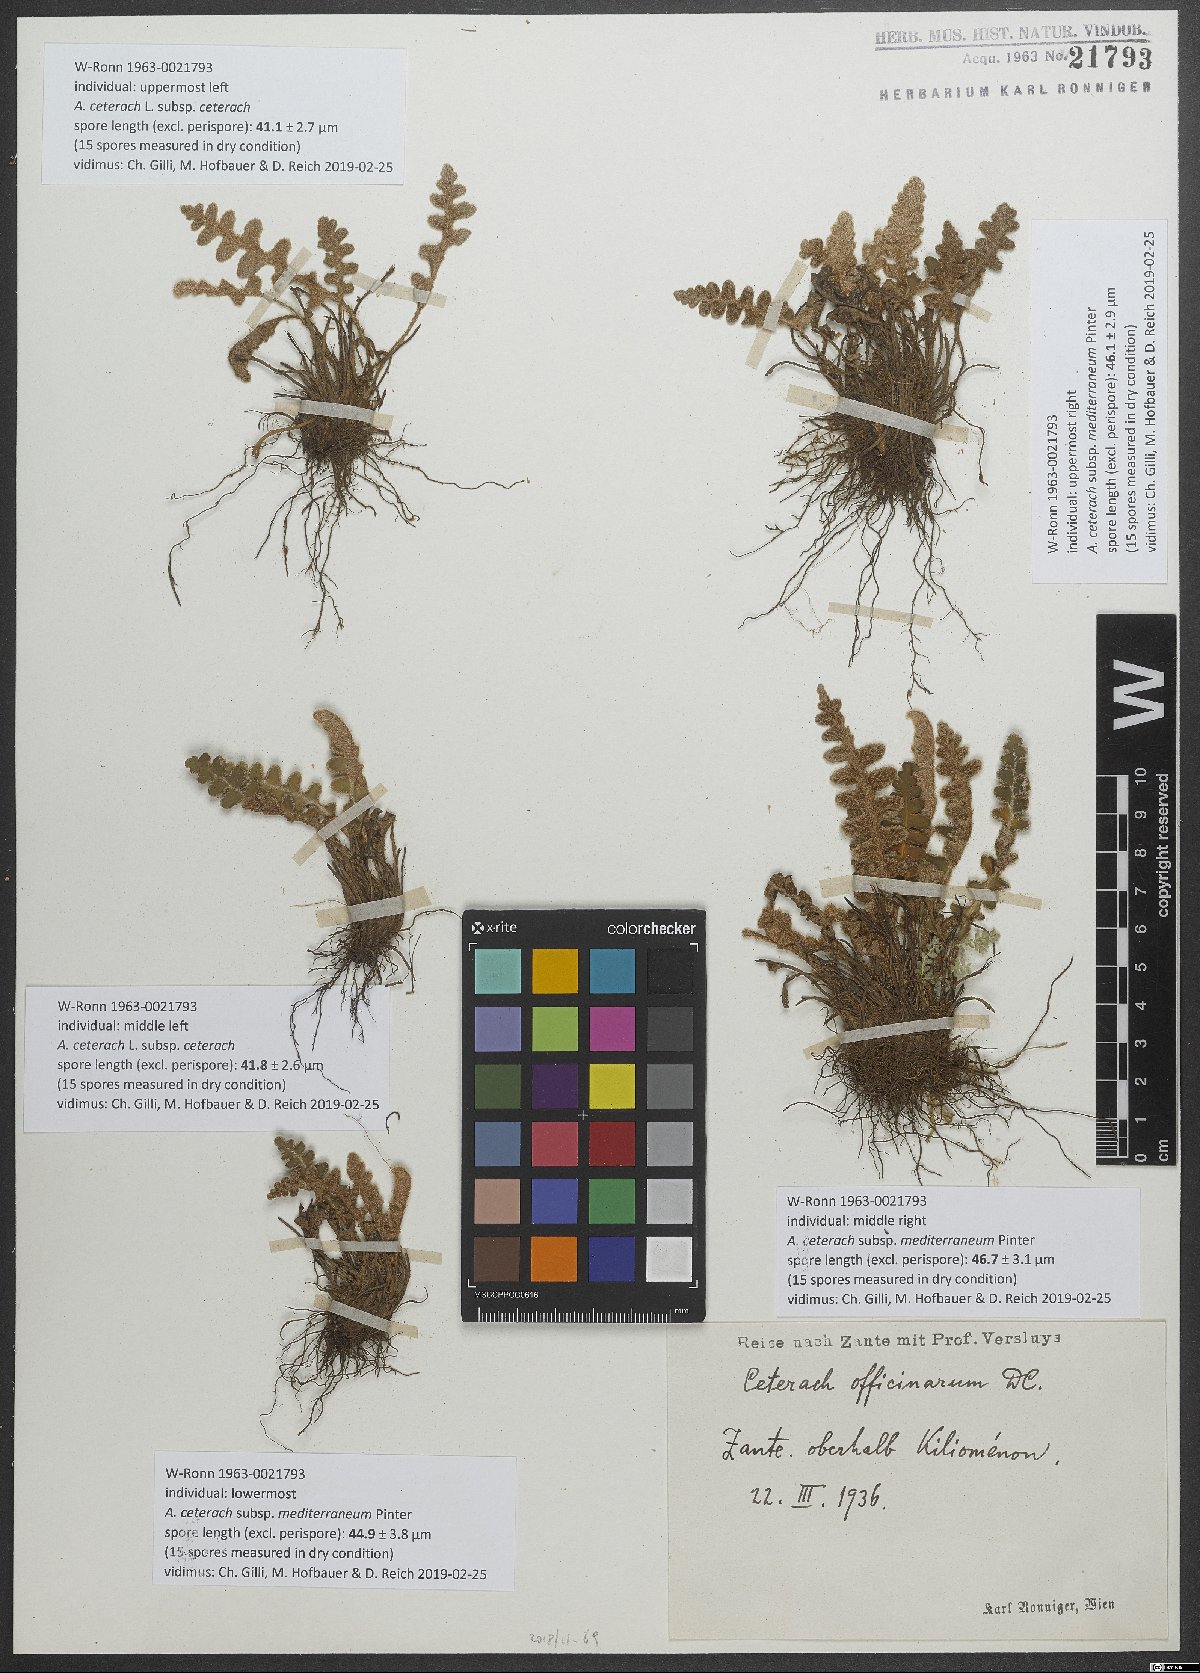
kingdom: Plantae
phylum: Tracheophyta
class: Polypodiopsida
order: Polypodiales
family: Aspleniaceae
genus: Asplenium
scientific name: Asplenium ceterach
